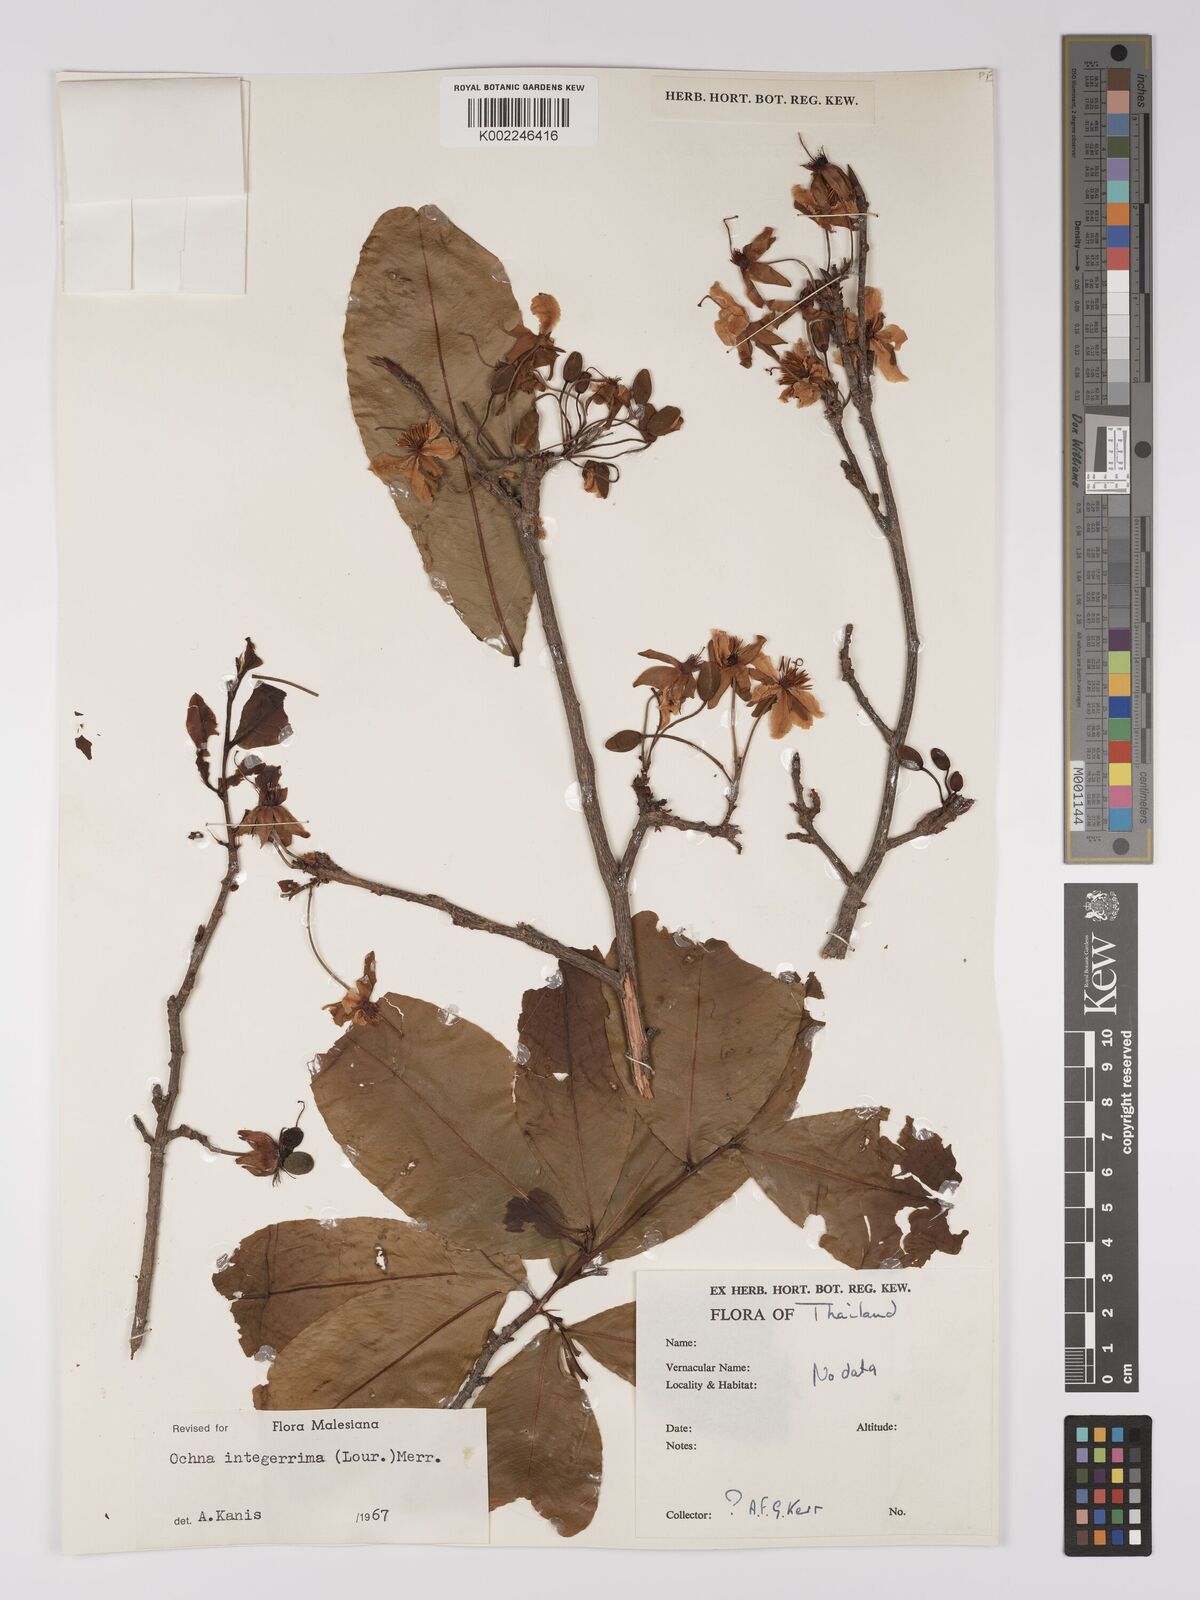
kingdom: Plantae
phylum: Tracheophyta
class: Magnoliopsida
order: Malpighiales
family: Ochnaceae
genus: Ochna
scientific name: Ochna integerrima
